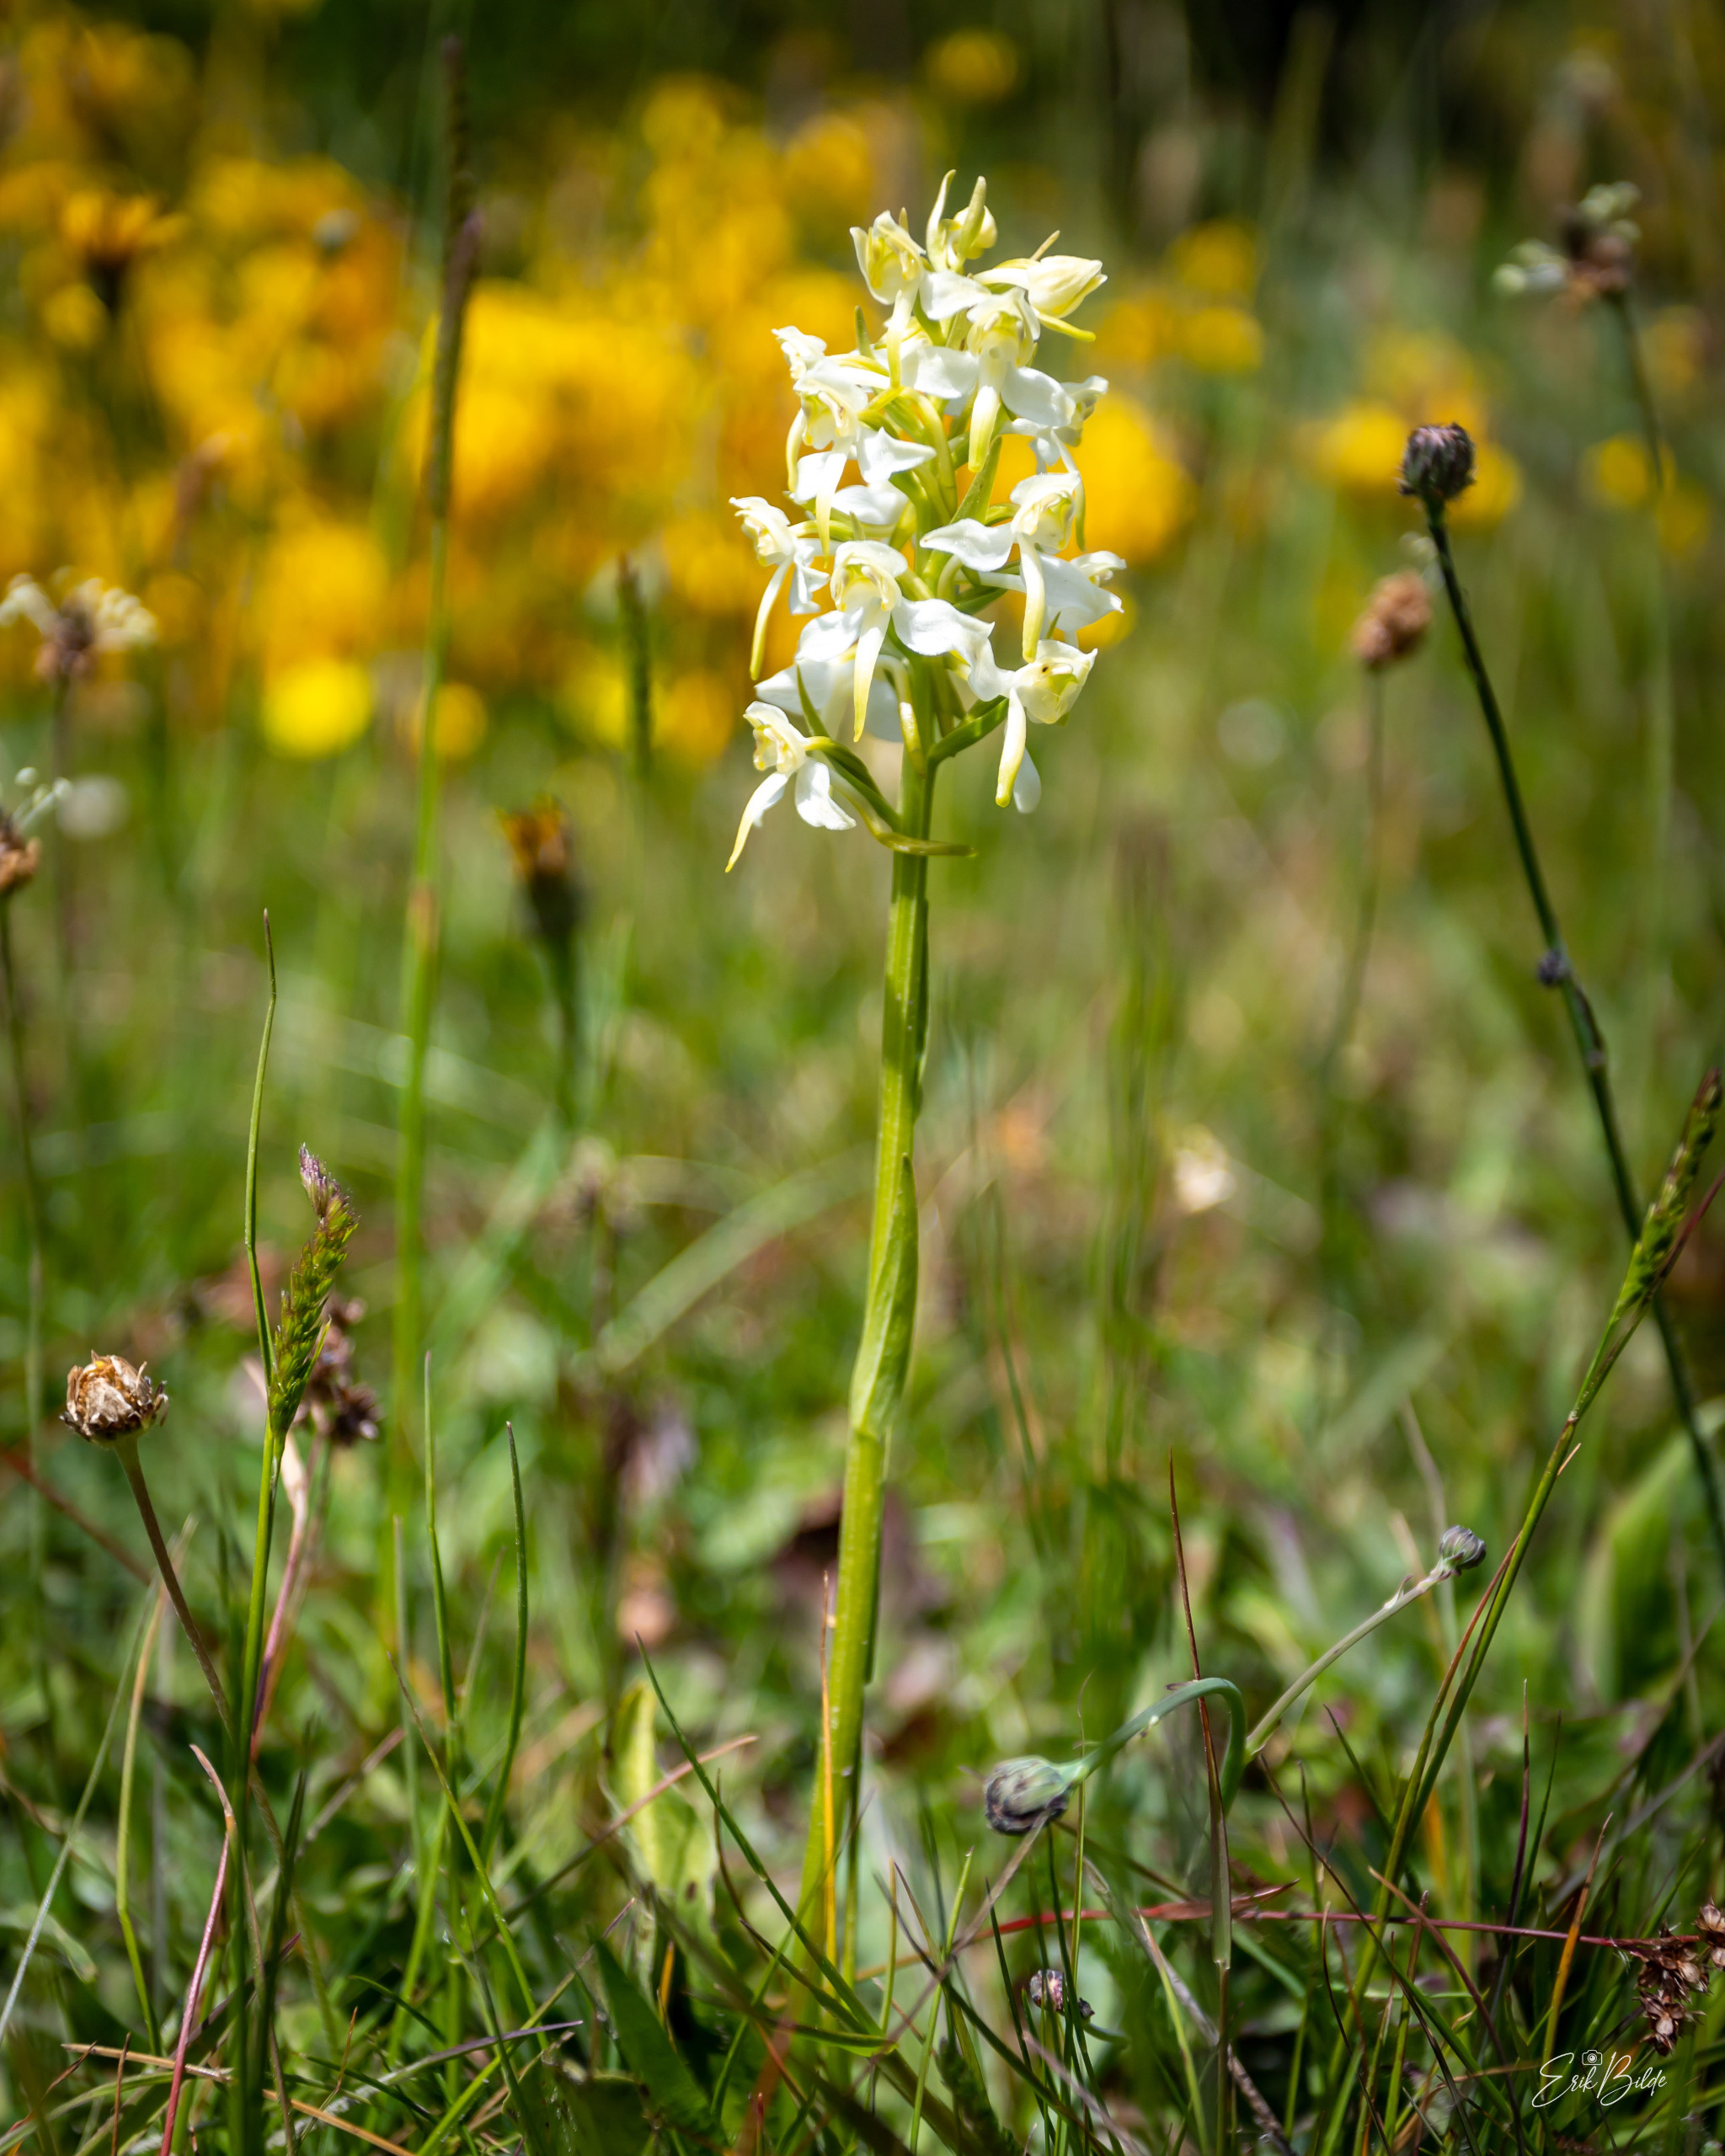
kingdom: Plantae
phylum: Tracheophyta
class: Liliopsida
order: Asparagales
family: Orchidaceae
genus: Platanthera
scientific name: Platanthera chlorantha
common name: Skov-gøgelilje
